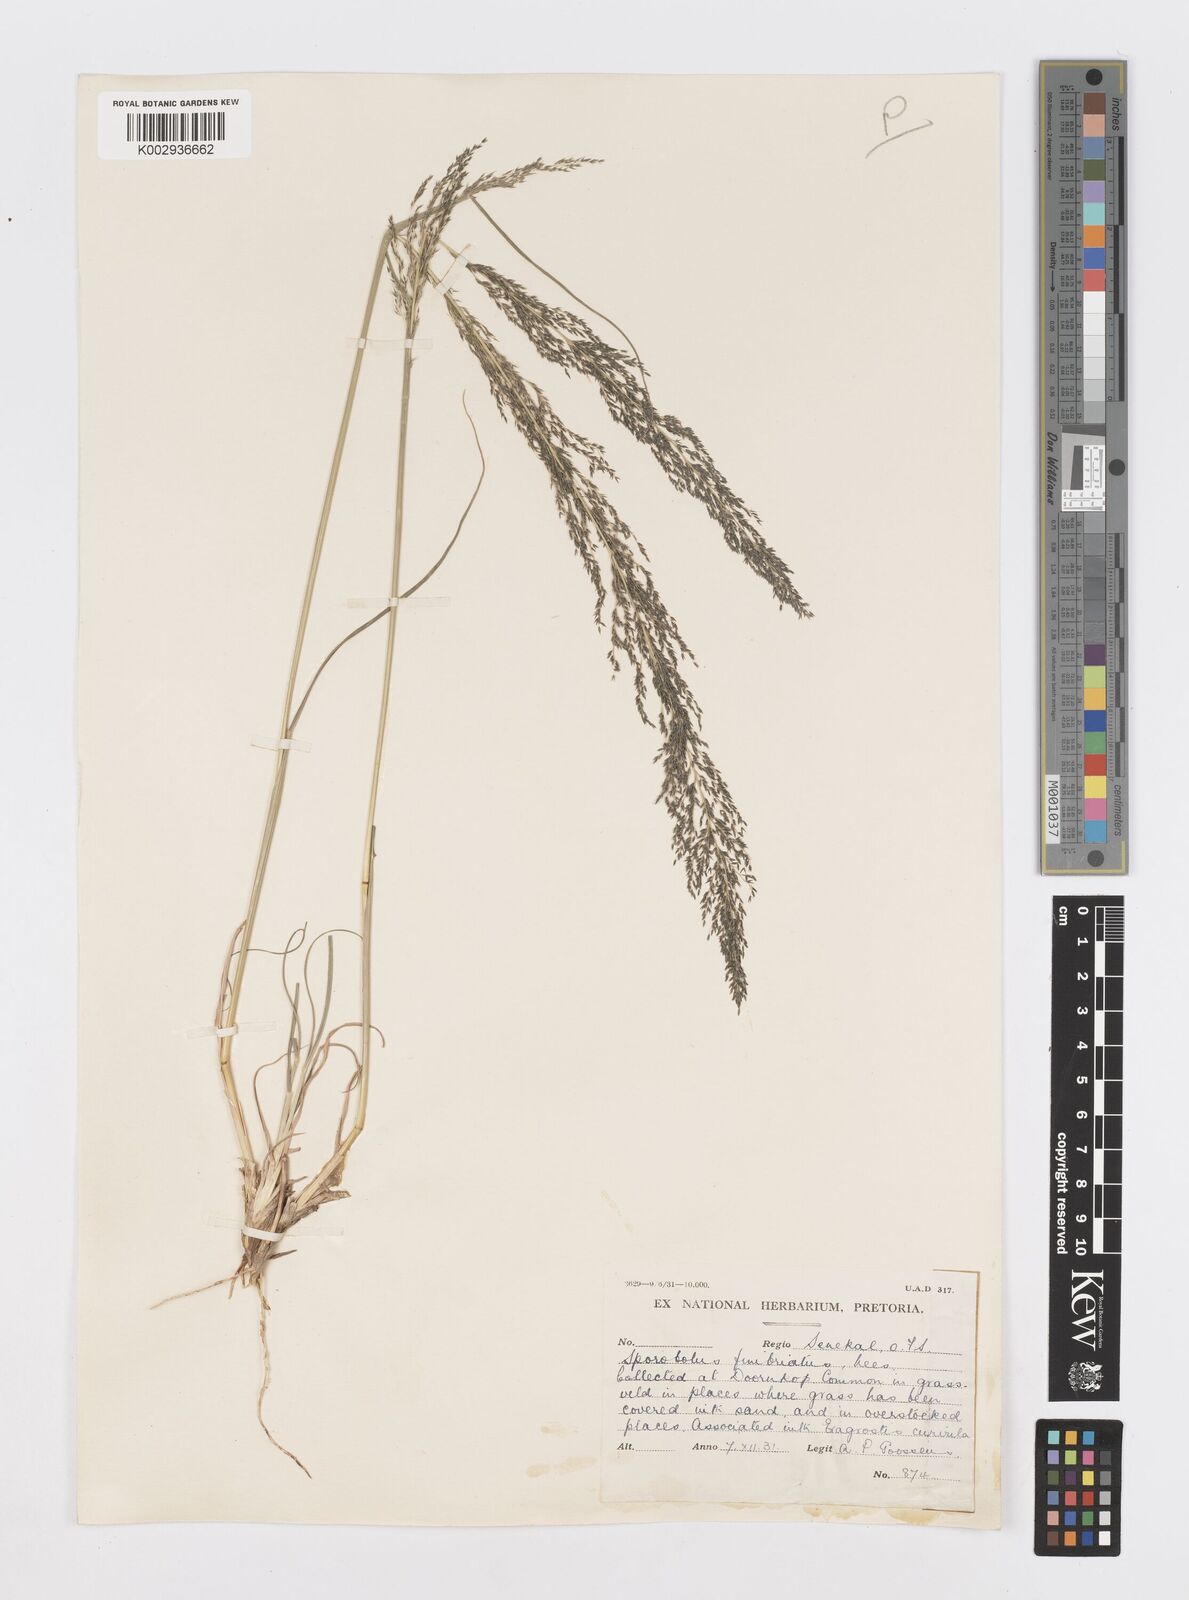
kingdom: Plantae
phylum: Tracheophyta
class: Liliopsida
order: Poales
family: Poaceae
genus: Sporobolus
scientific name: Sporobolus fimbriatus
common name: Fringed dropseed
